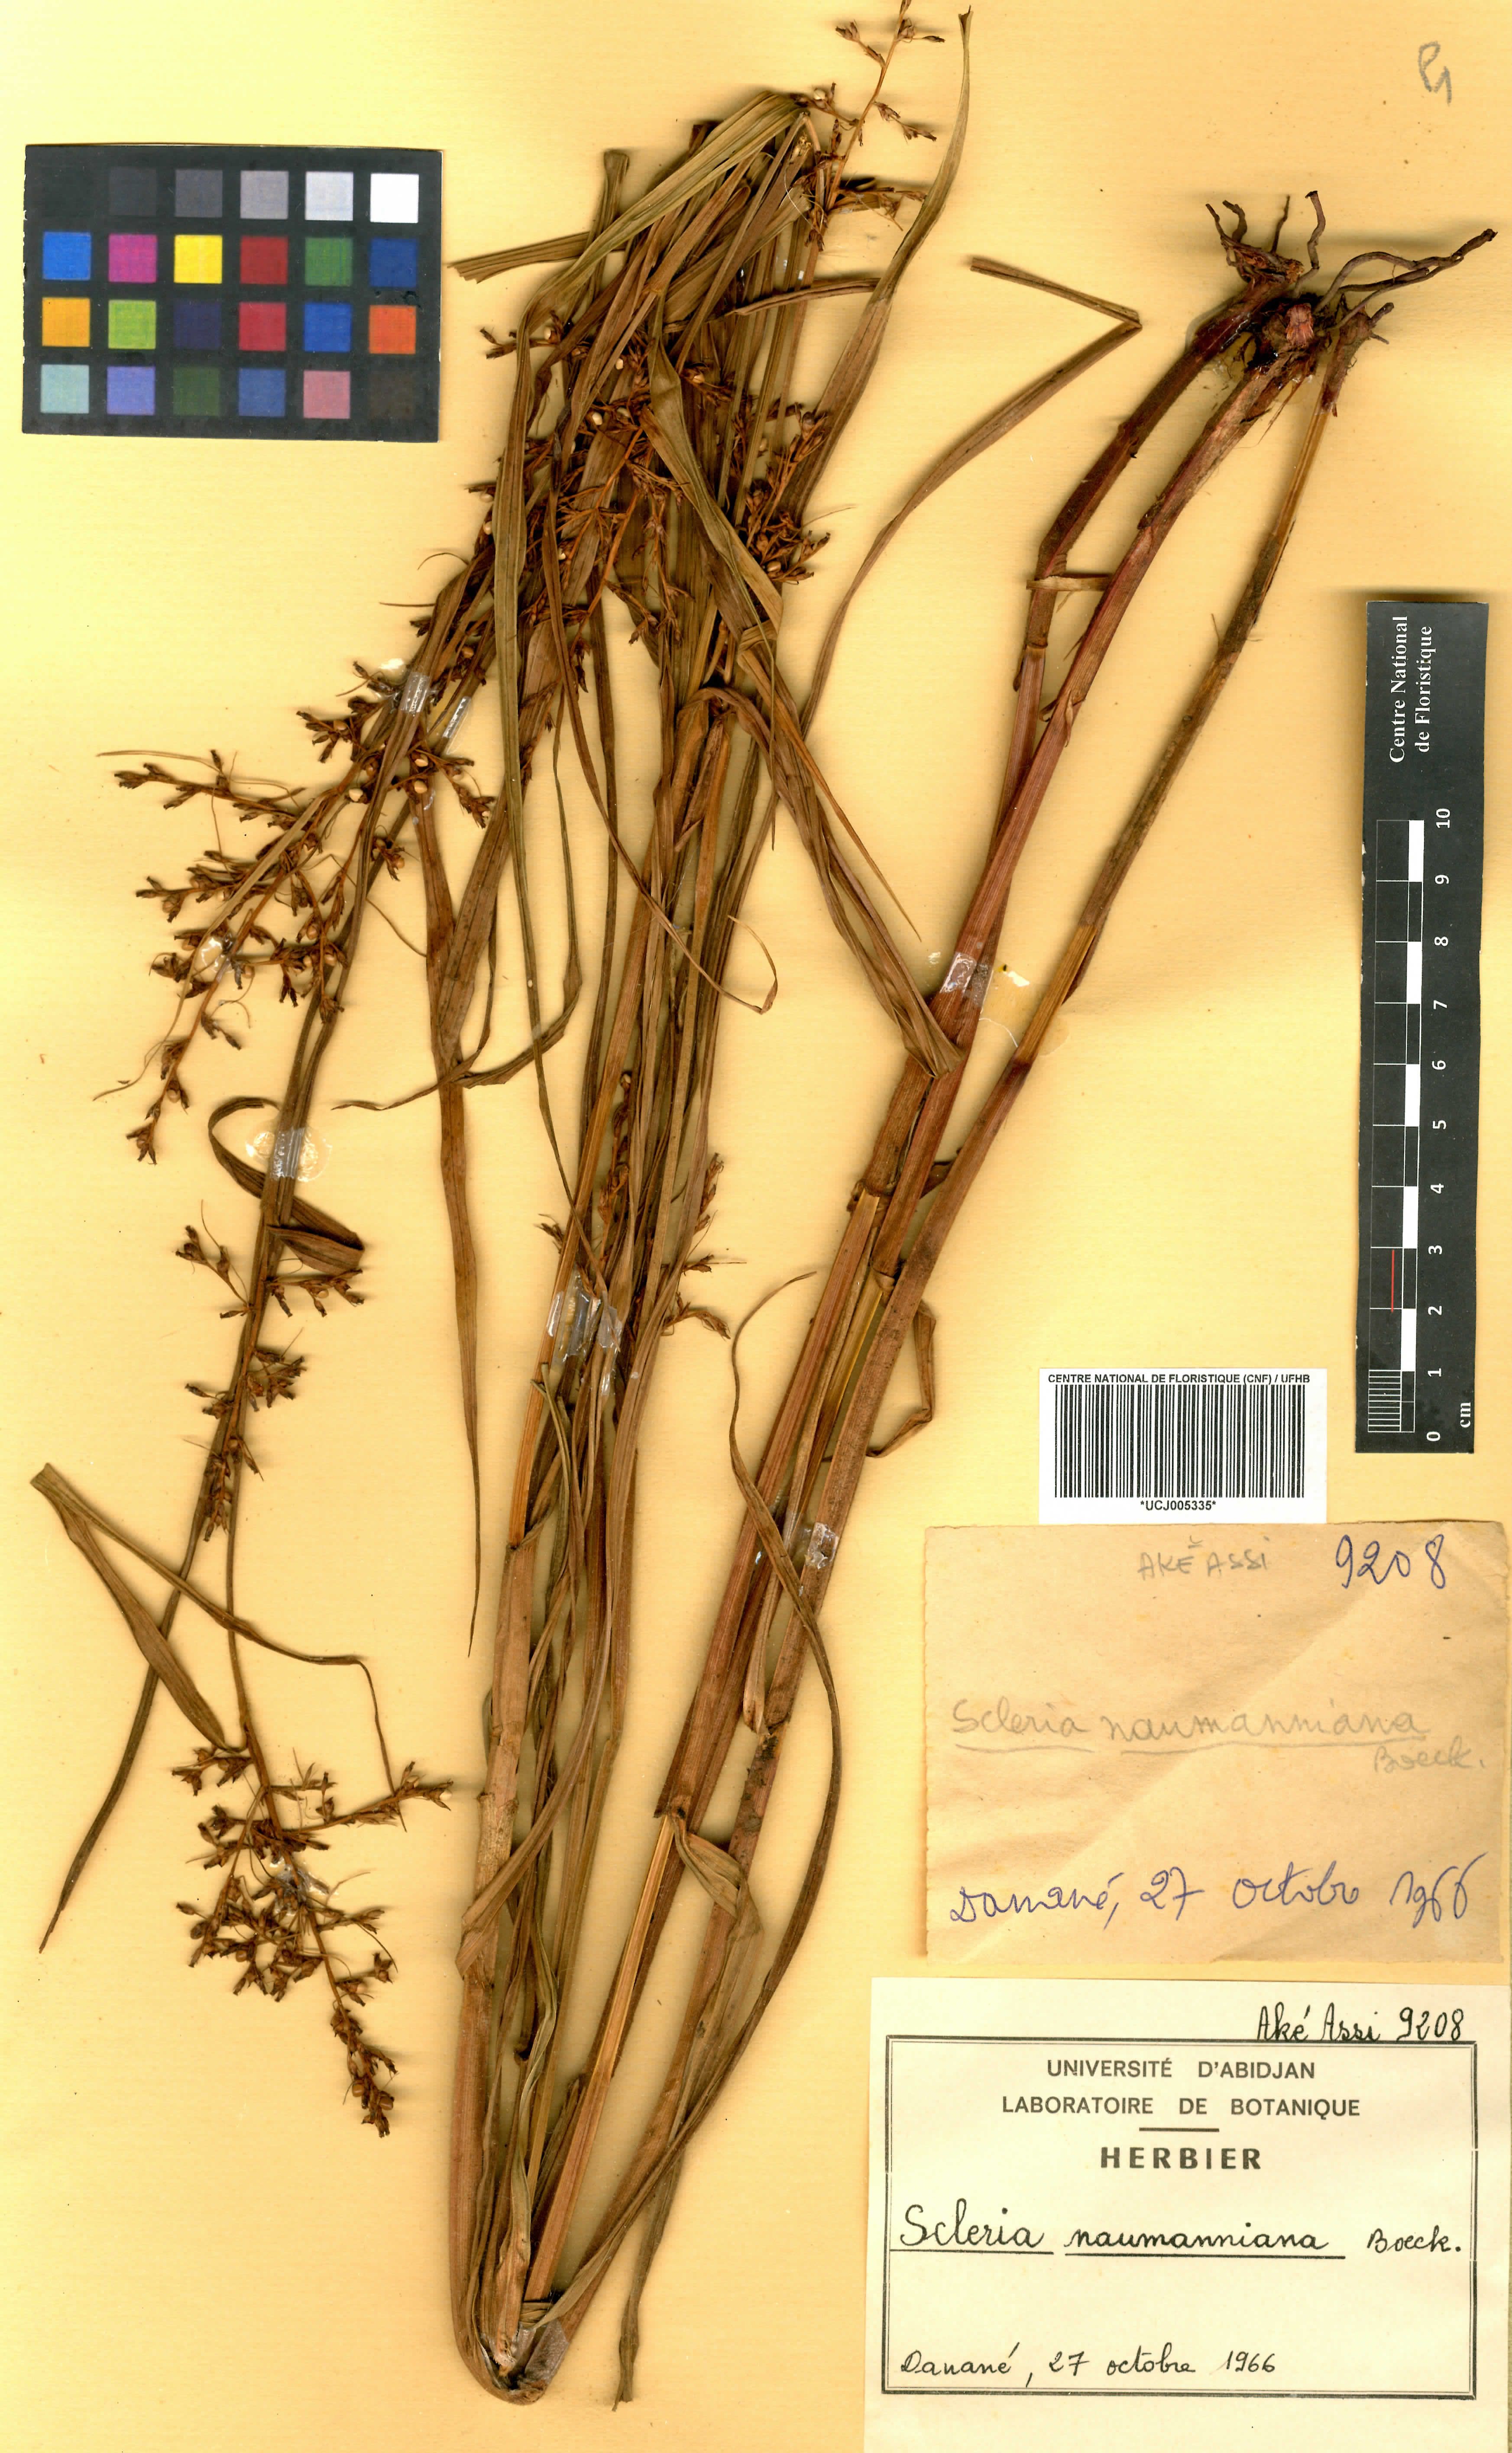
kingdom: Plantae
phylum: Tracheophyta
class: Liliopsida
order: Poales
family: Cyperaceae
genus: Scleria
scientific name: Scleria naumanniana
